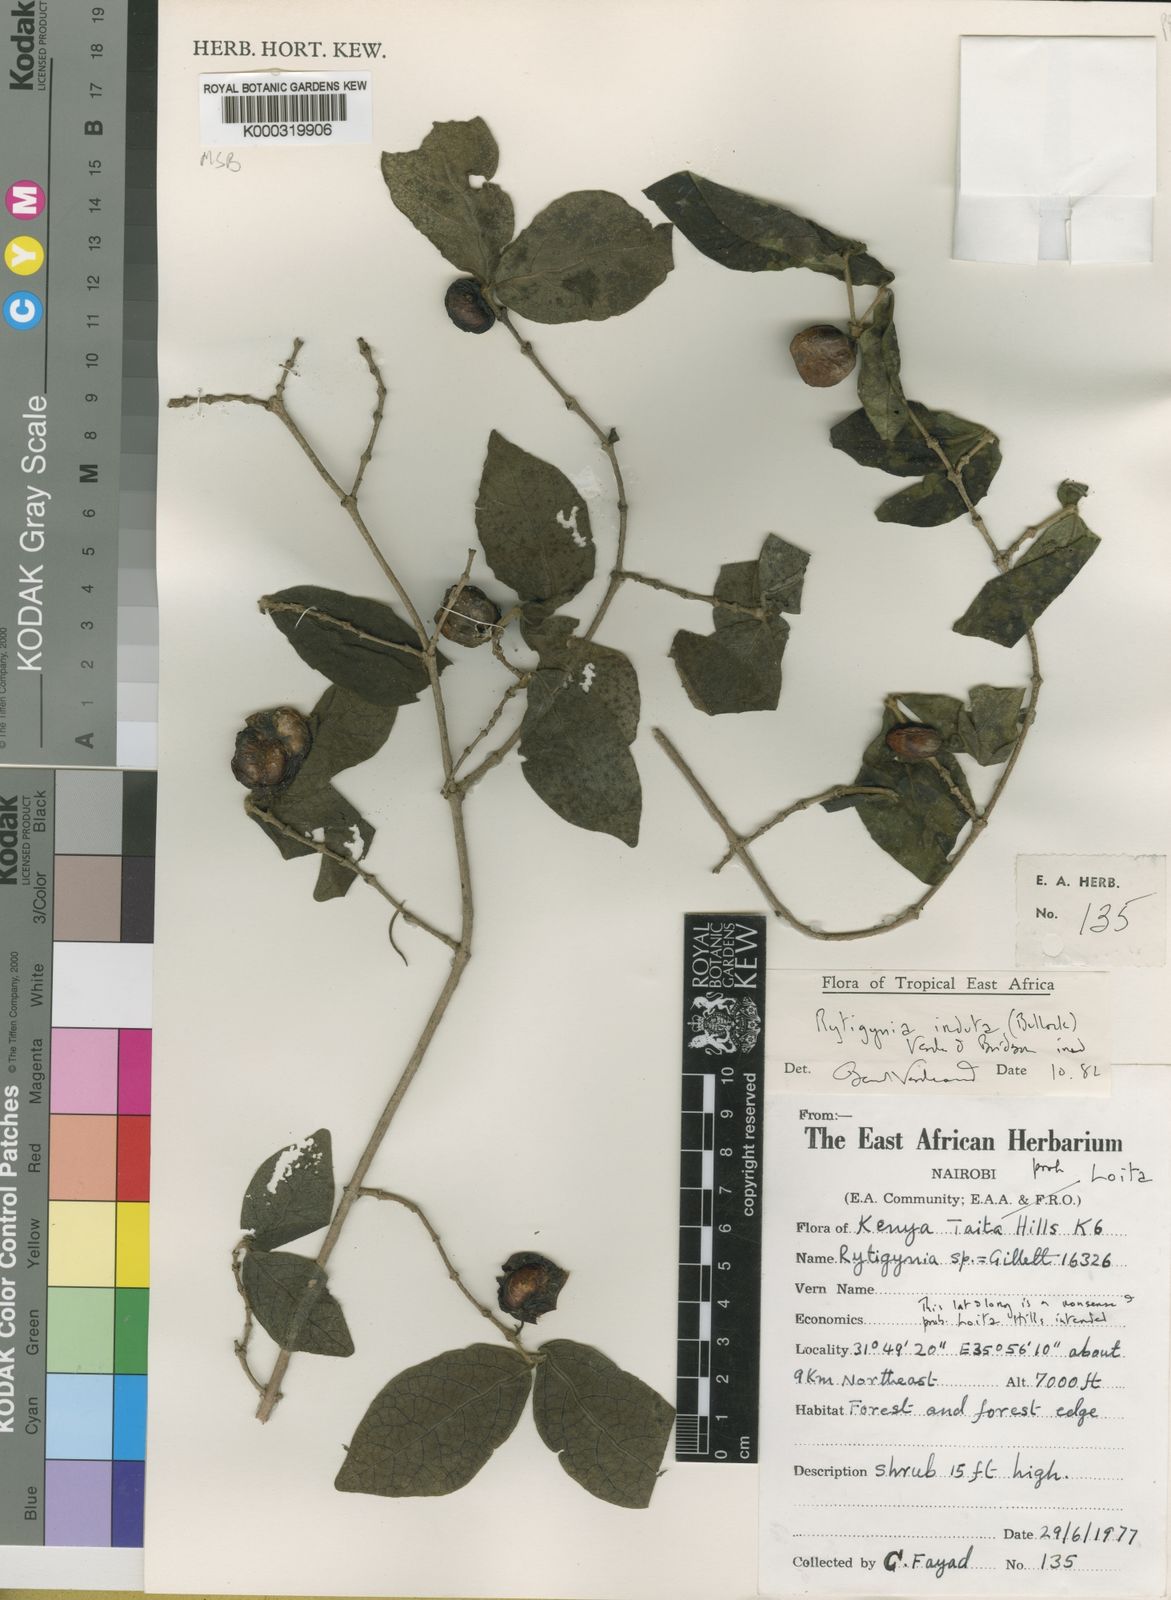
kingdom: Plantae
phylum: Tracheophyta
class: Magnoliopsida
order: Gentianales
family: Rubiaceae
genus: Vangueria
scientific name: Vangueria induta
